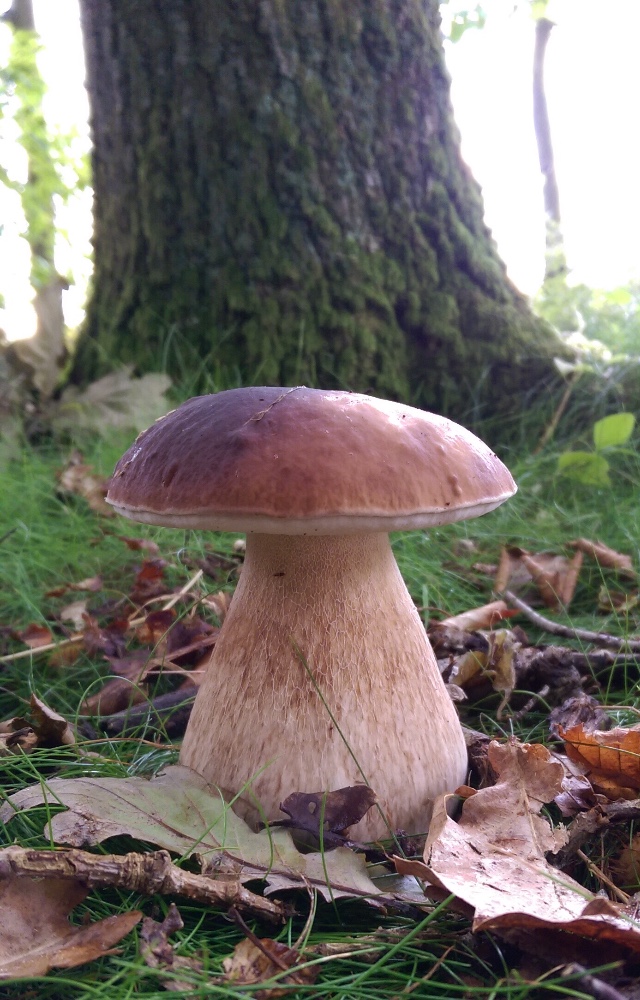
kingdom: Fungi
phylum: Basidiomycota
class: Agaricomycetes
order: Boletales
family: Boletaceae
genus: Boletus
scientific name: Boletus edulis
